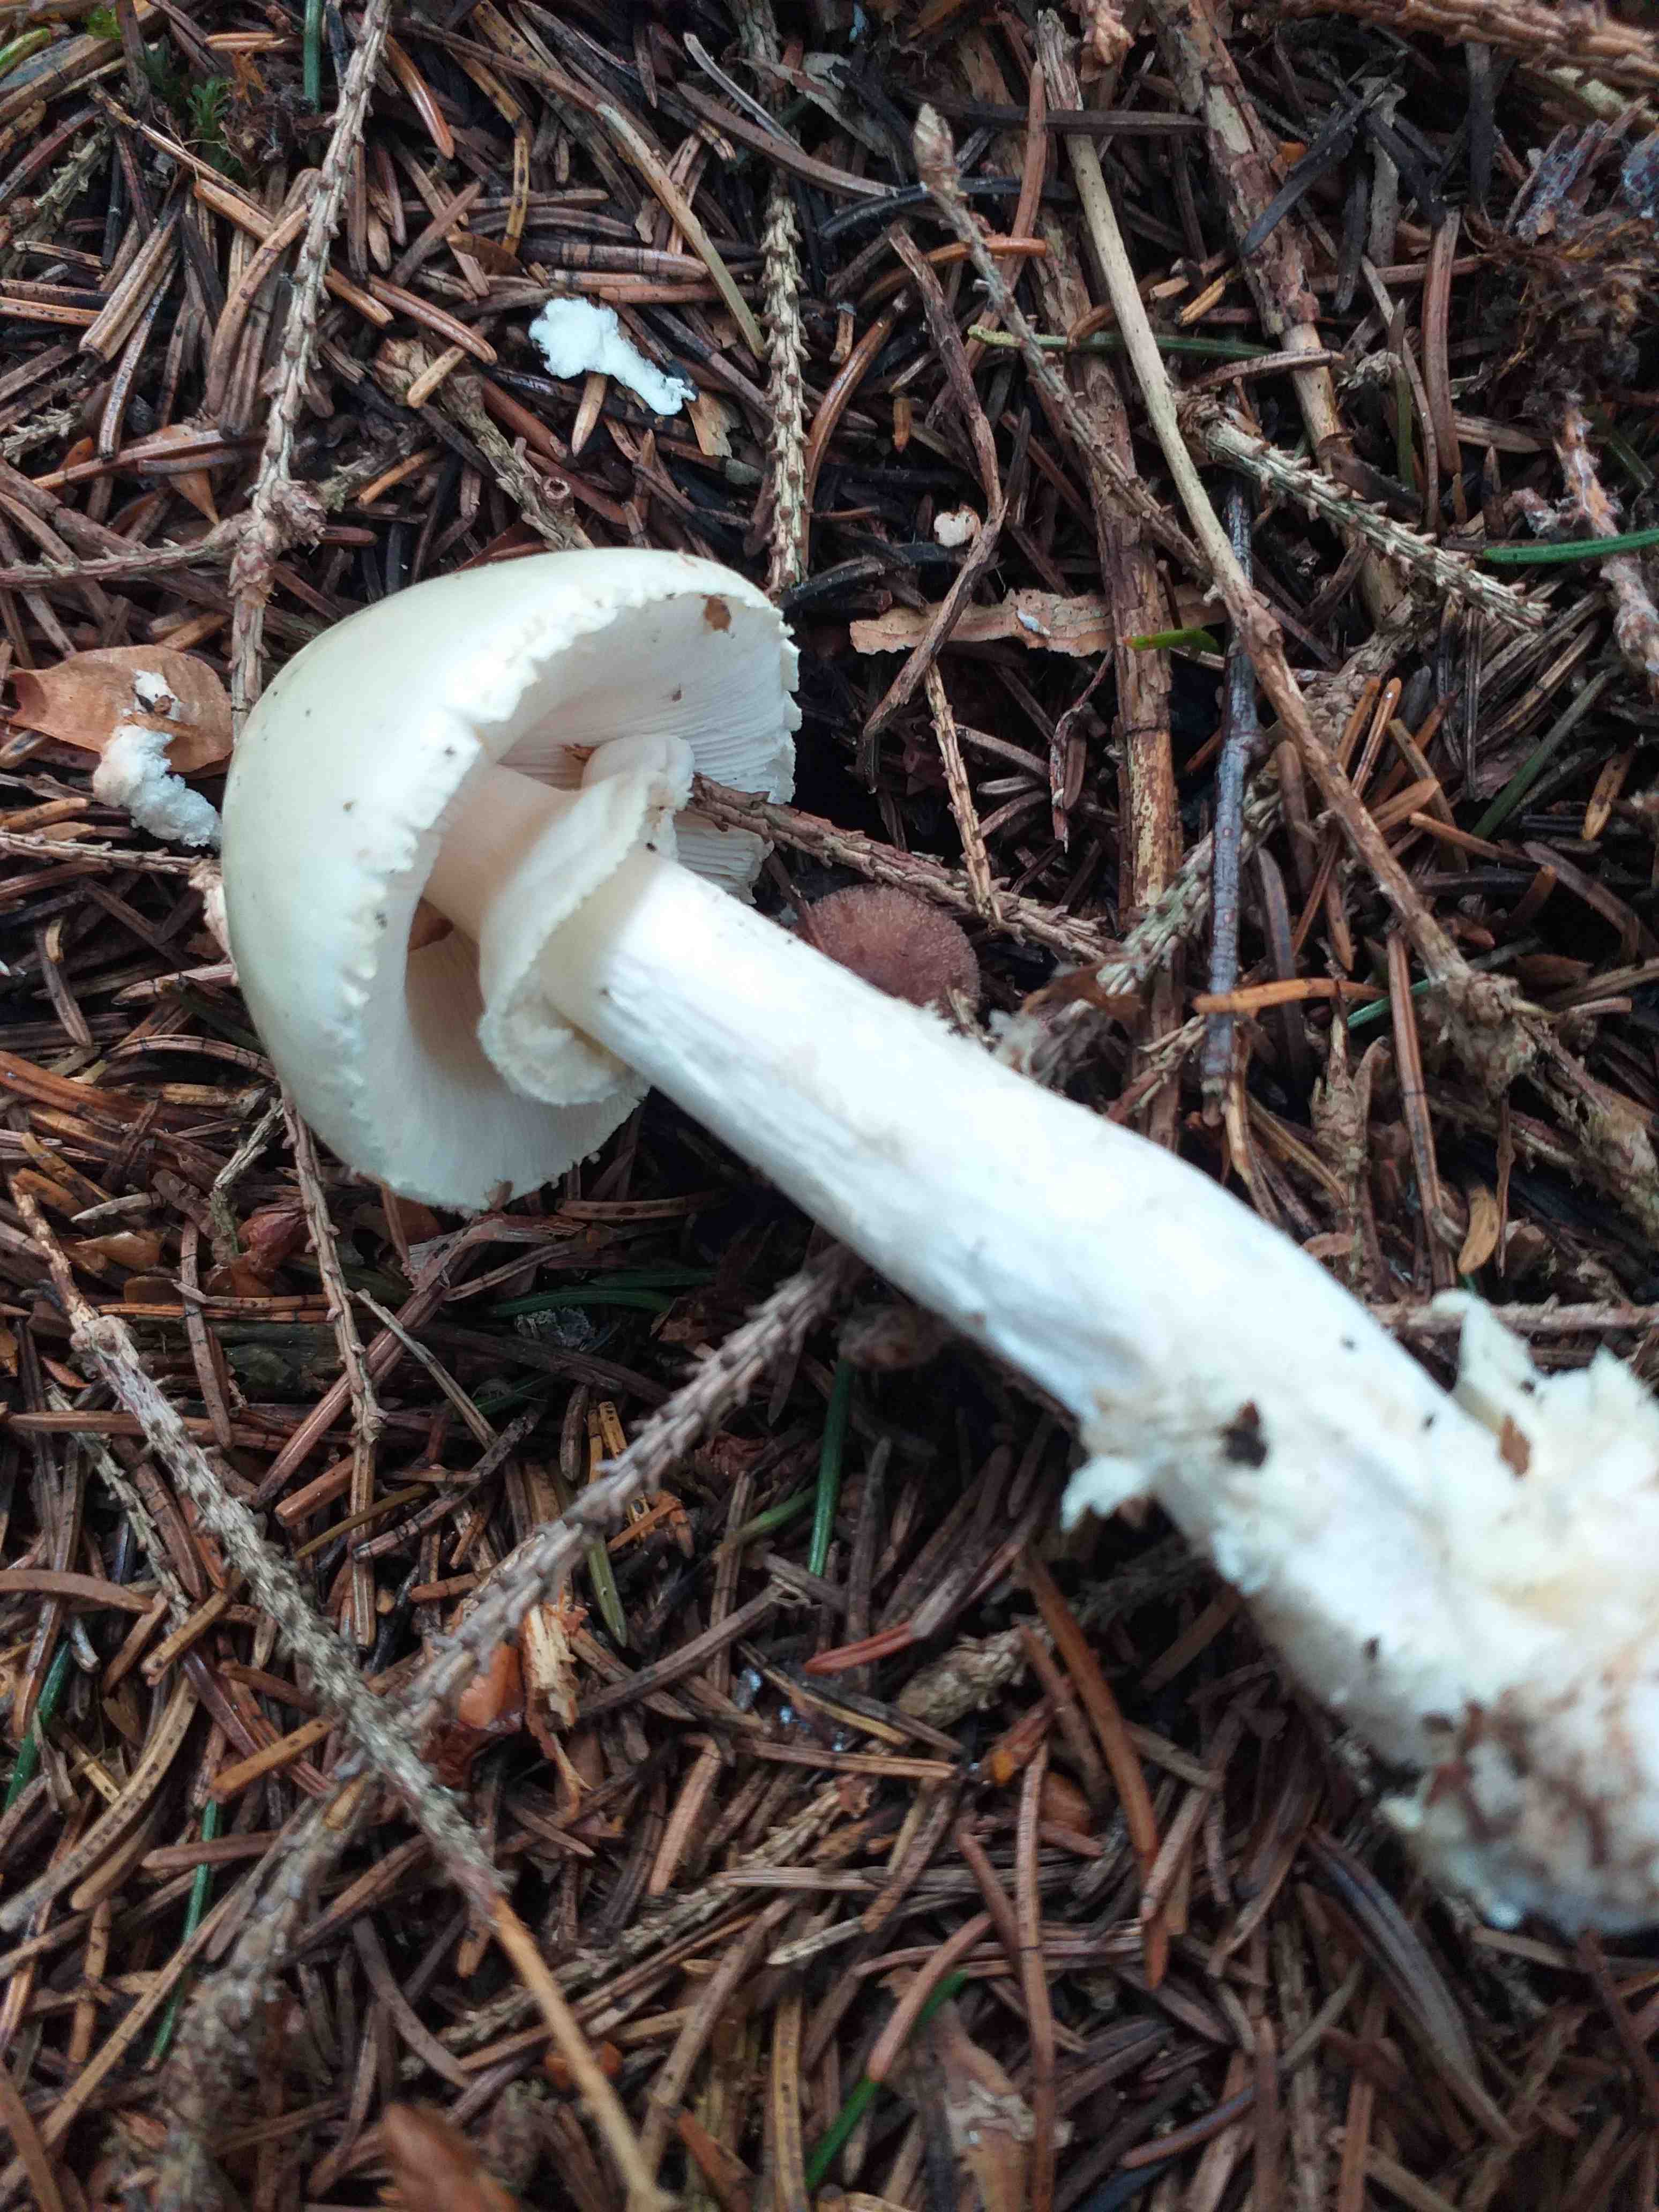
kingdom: Fungi
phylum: Basidiomycota
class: Agaricomycetes
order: Agaricales
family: Amanitaceae
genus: Amanita
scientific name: Amanita citrina
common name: kugleknoldet fluesvamp
